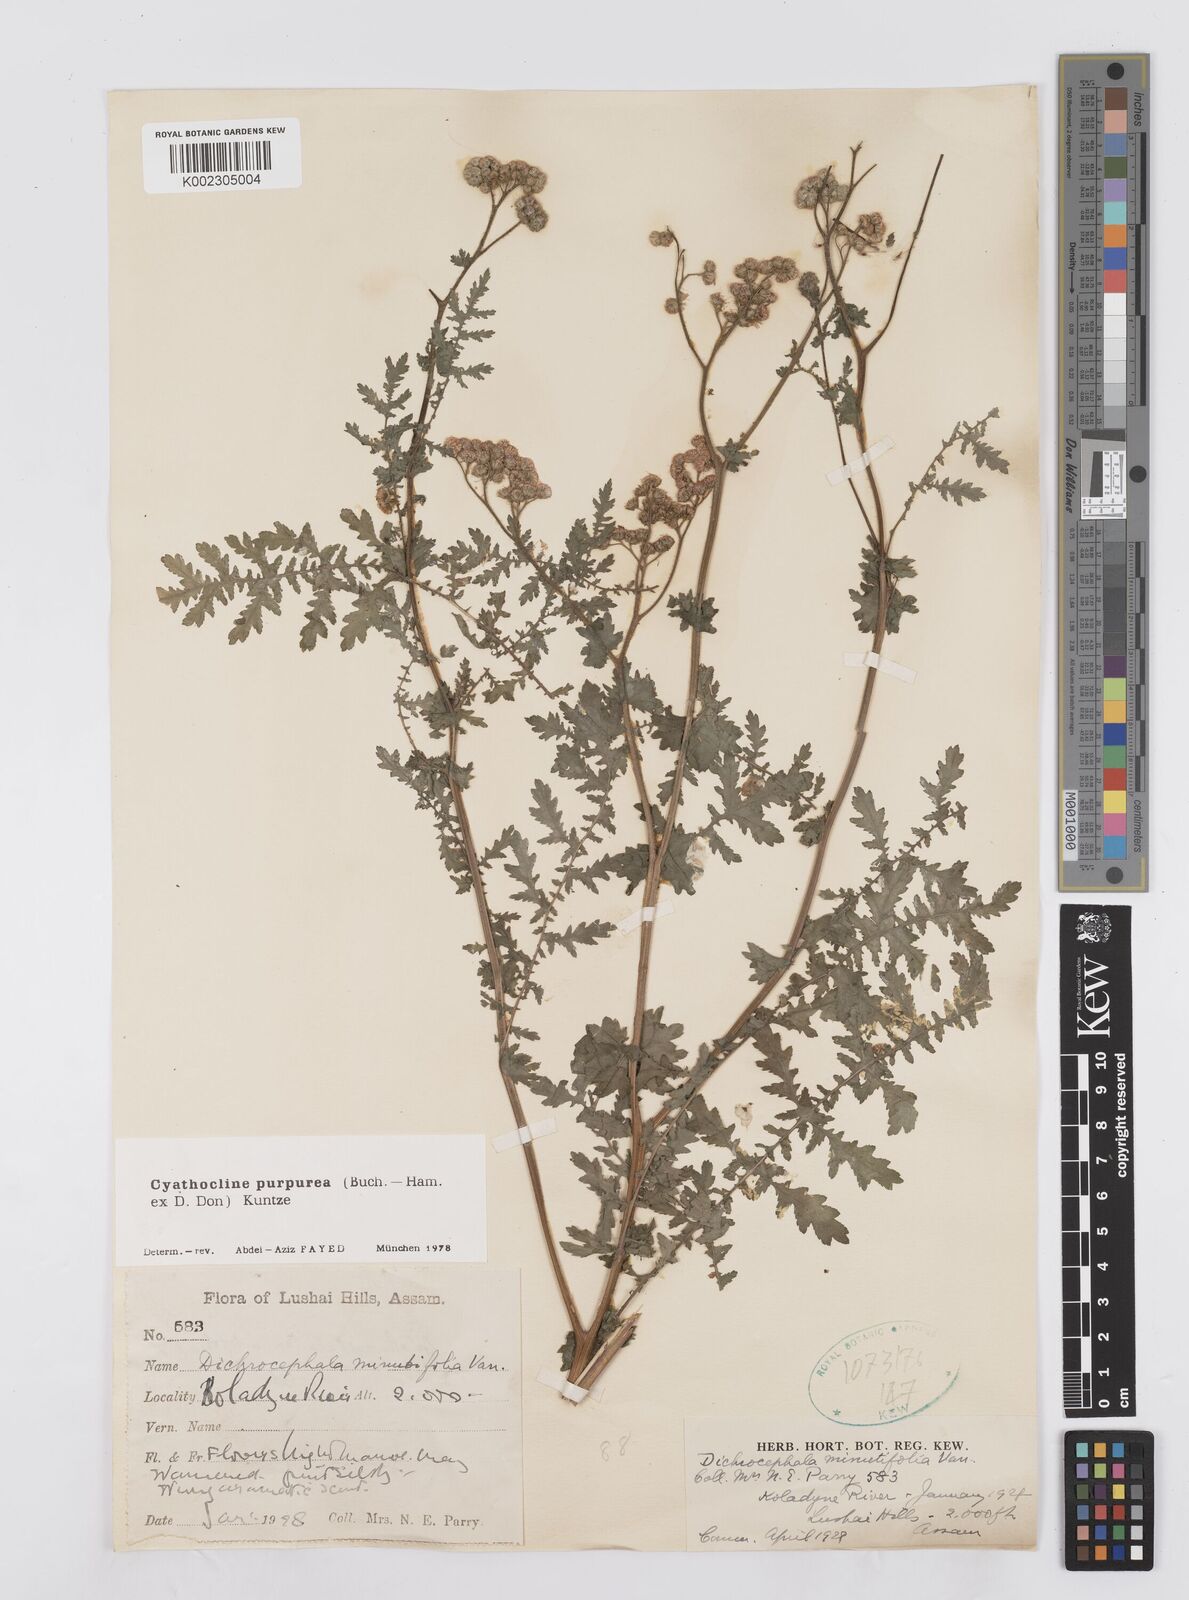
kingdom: Plantae
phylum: Tracheophyta
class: Magnoliopsida
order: Asterales
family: Asteraceae
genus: Cyathocline
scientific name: Cyathocline purpurea
